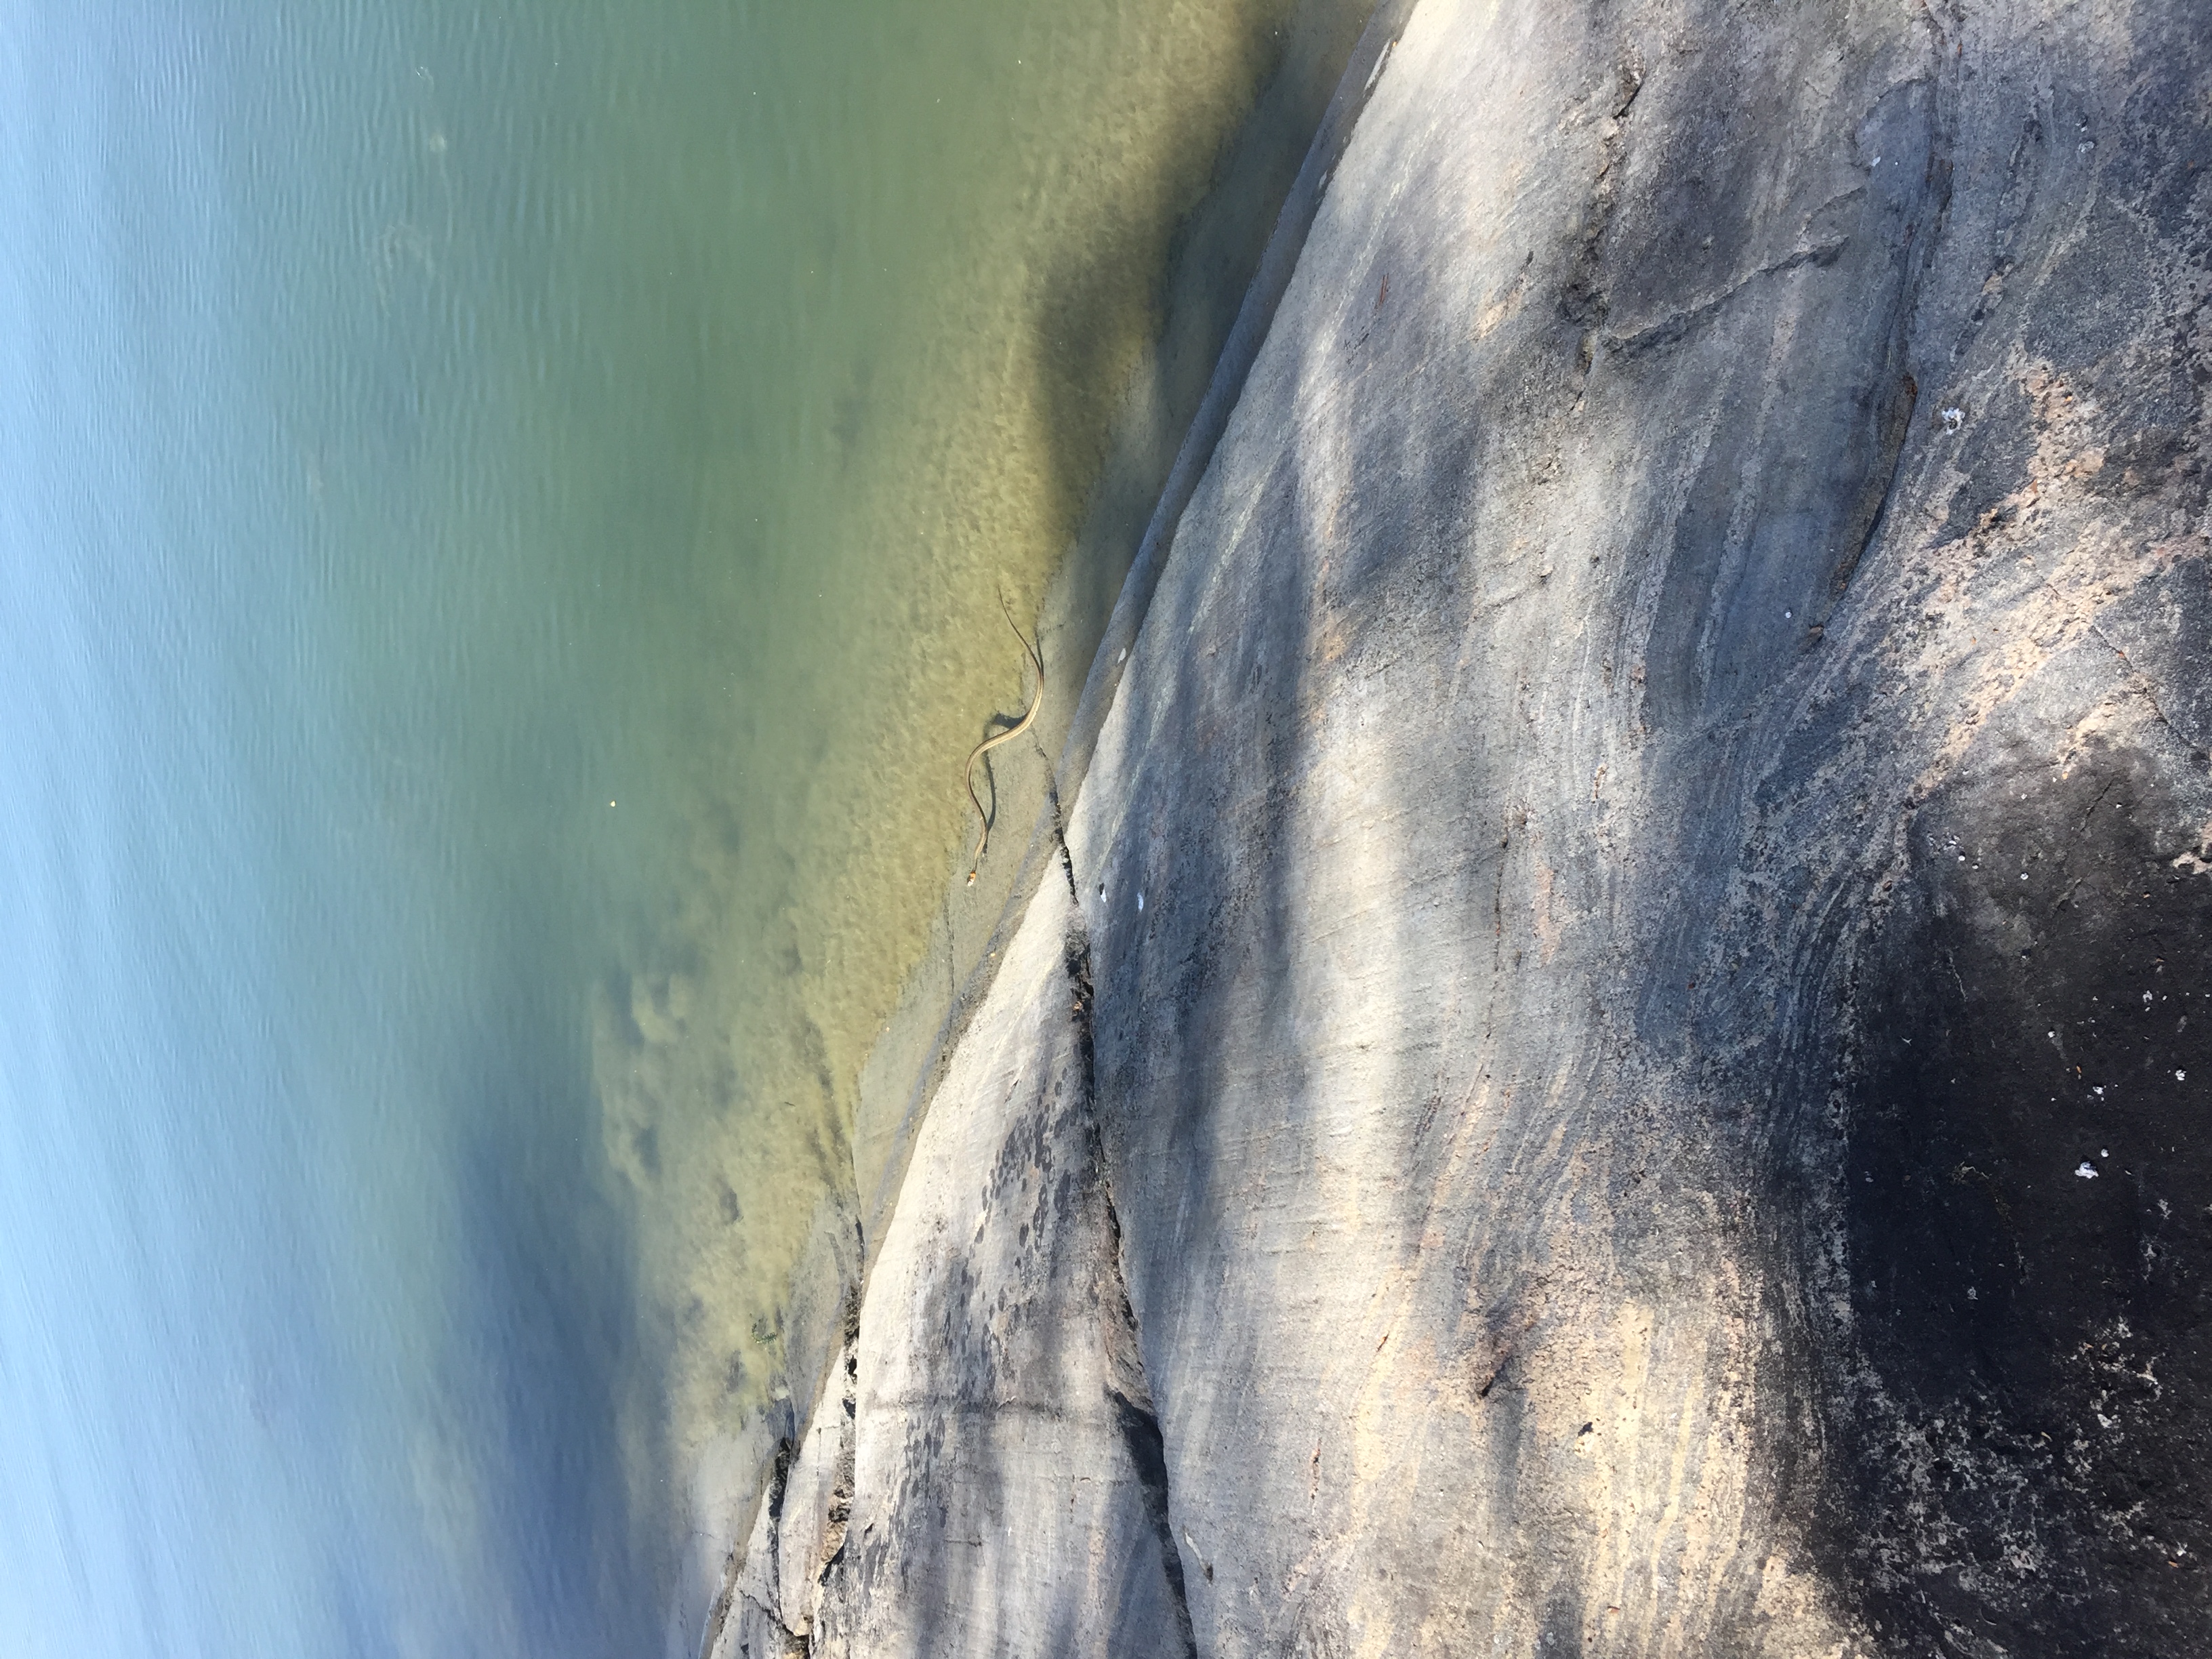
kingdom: Animalia
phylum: Chordata
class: Squamata
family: Colubridae
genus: Natrix
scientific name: Natrix natrix
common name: Grass snake
